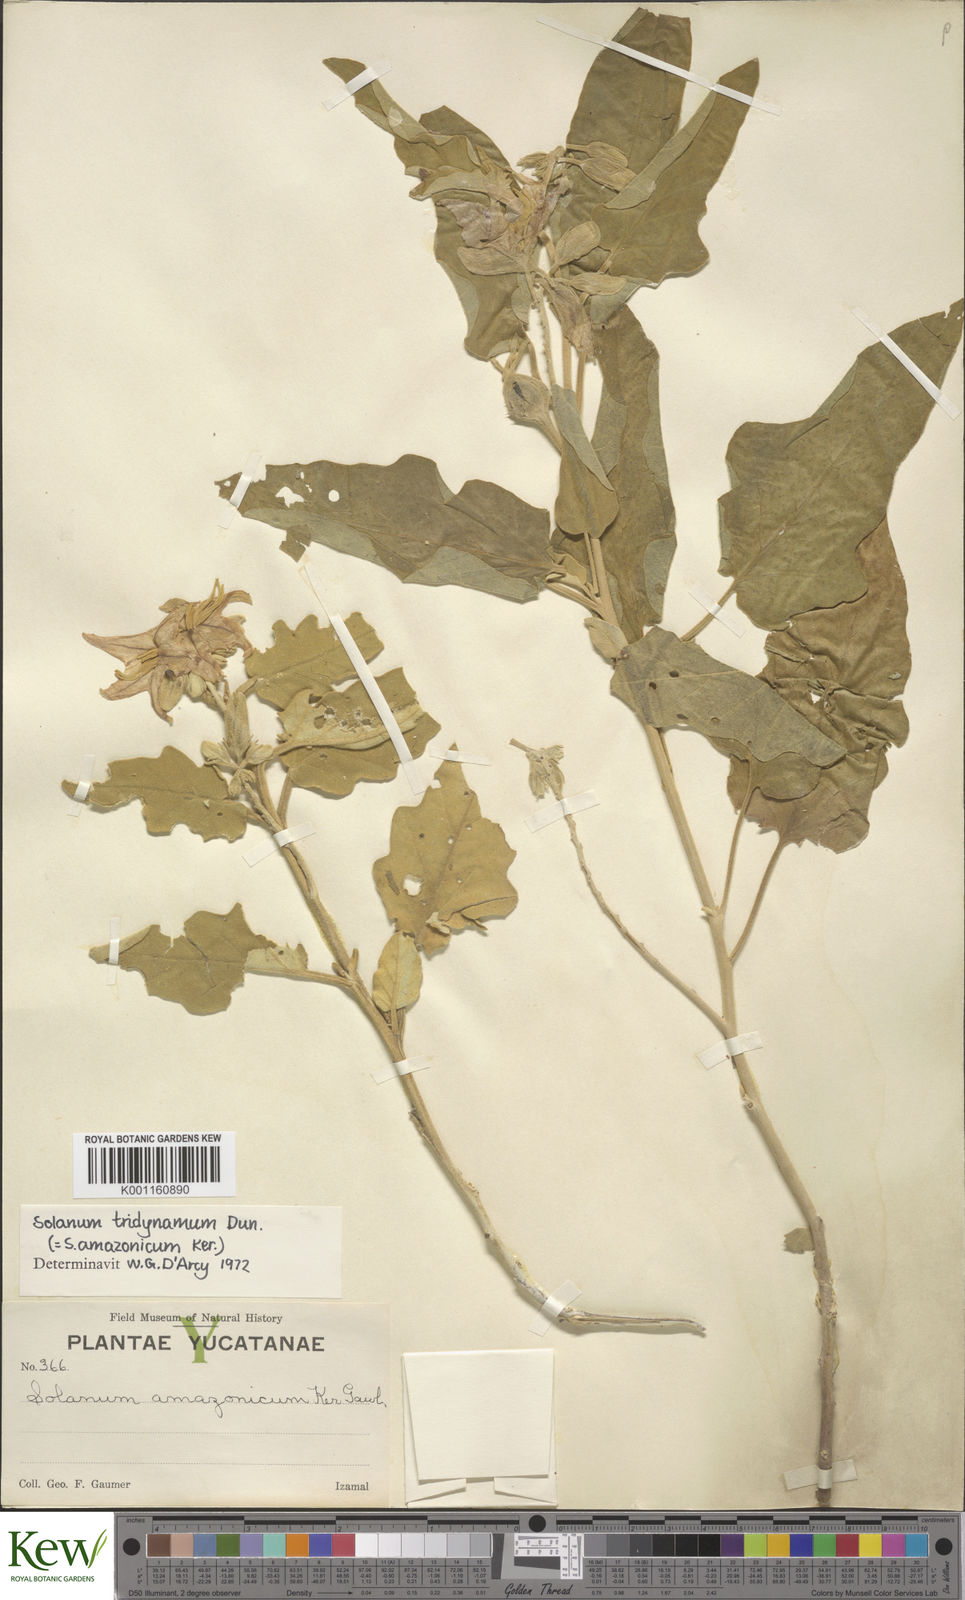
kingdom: Plantae
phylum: Tracheophyta
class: Magnoliopsida
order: Solanales
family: Solanaceae
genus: Solanum
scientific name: Solanum houstonii
